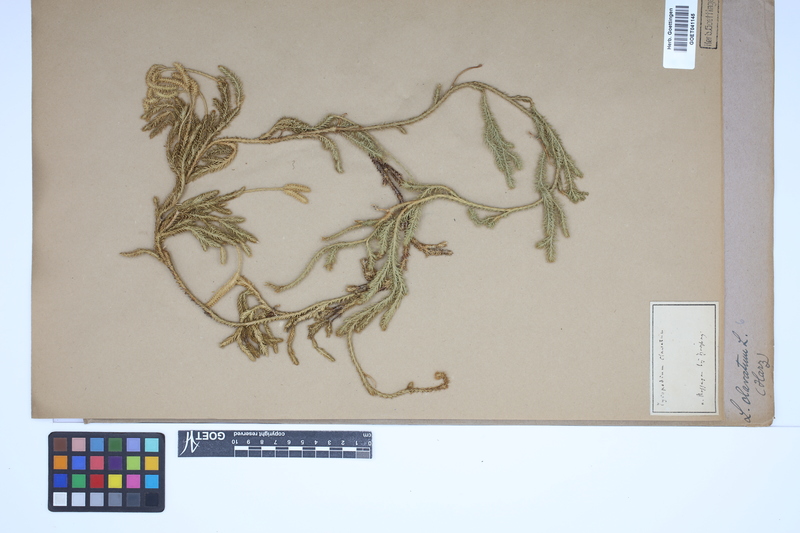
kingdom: Plantae
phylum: Tracheophyta
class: Lycopodiopsida
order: Lycopodiales
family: Lycopodiaceae
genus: Lycopodium
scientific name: Lycopodium clavatum
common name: Stag's-horn clubmoss
